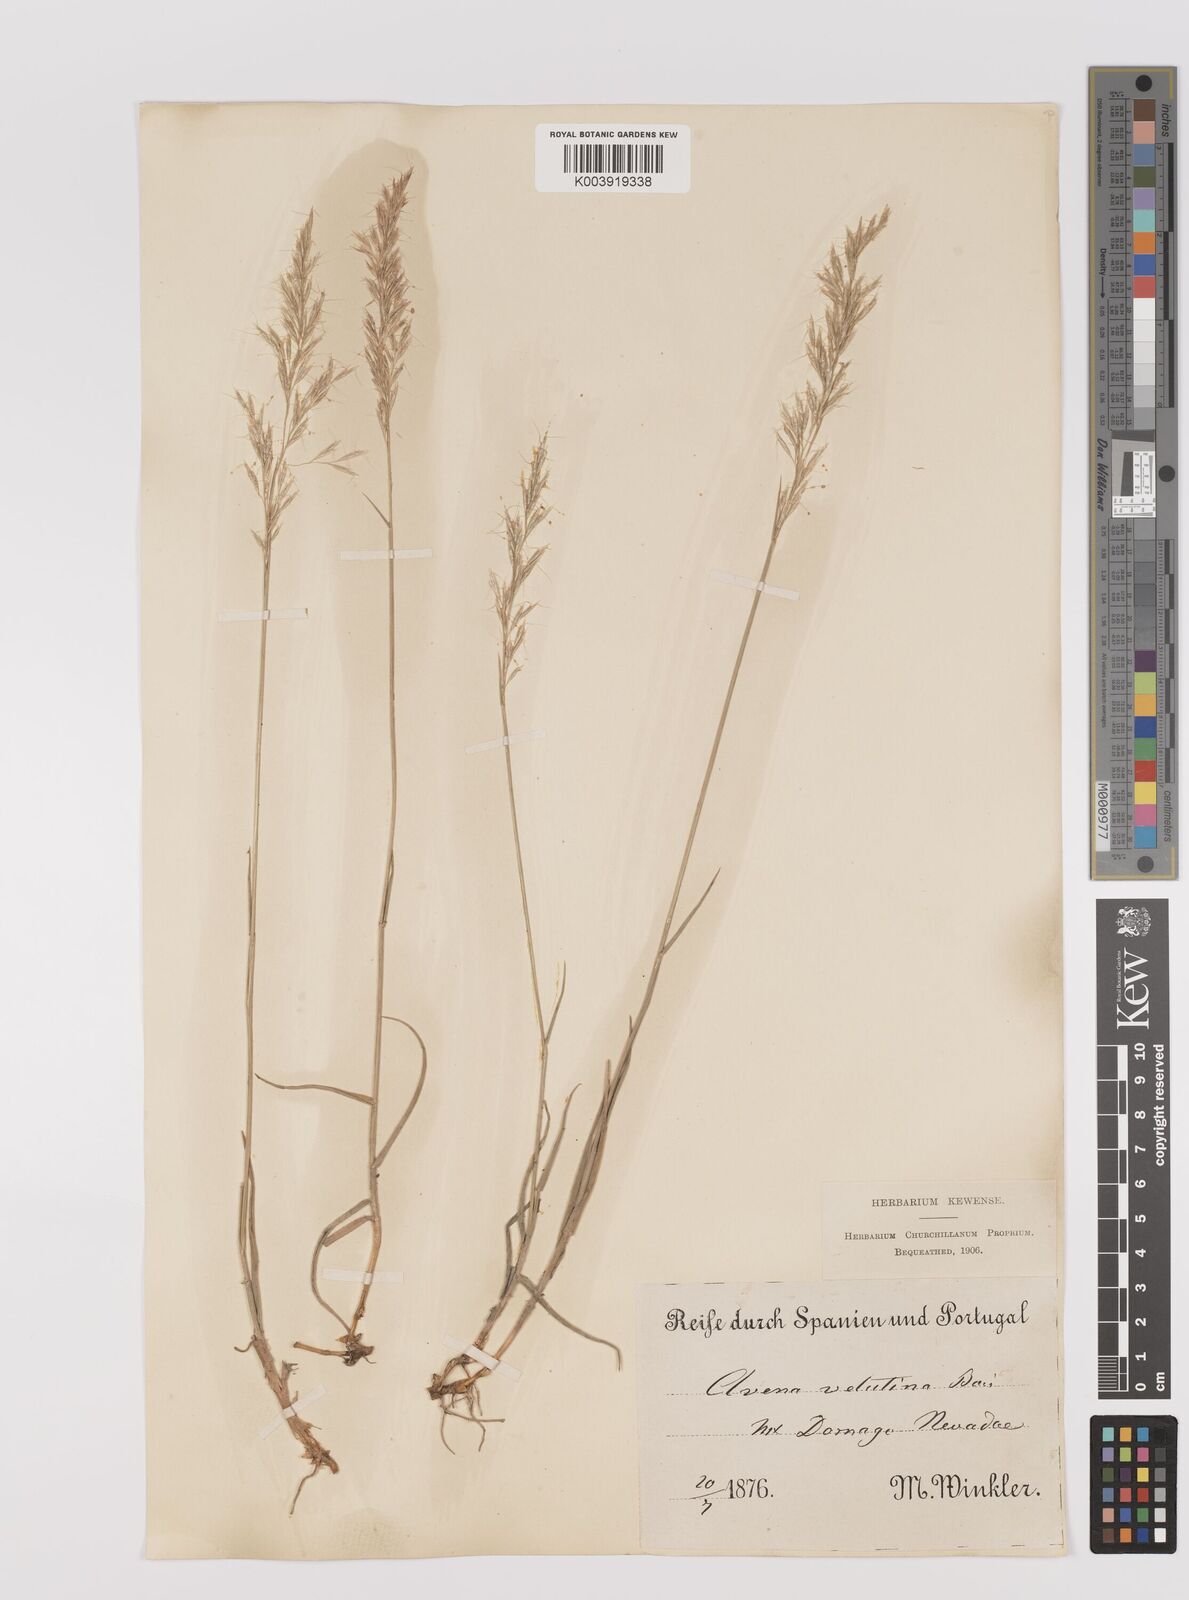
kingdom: Plantae
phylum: Tracheophyta
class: Liliopsida
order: Poales
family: Poaceae
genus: Trisetum
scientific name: Trisetum velutinum
